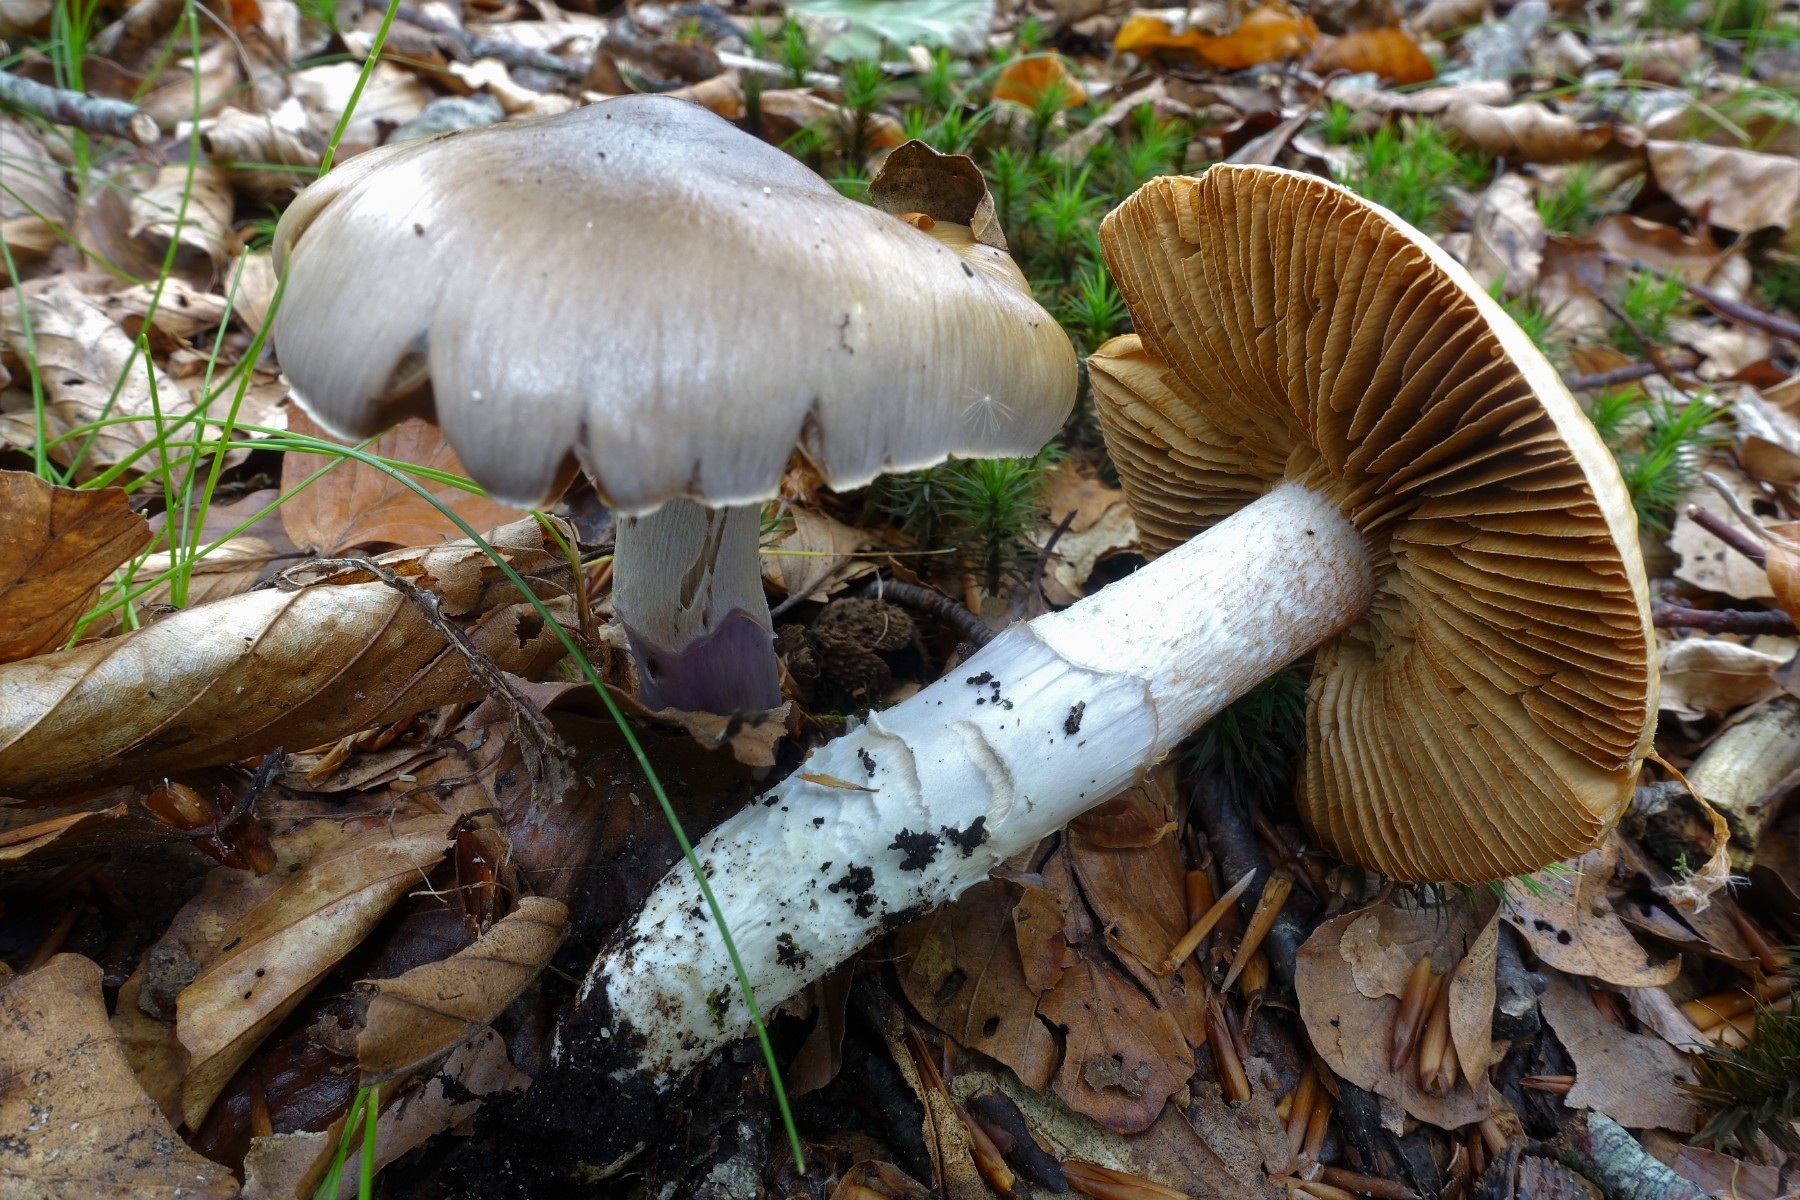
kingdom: Fungi
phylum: Basidiomycota
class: Agaricomycetes
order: Agaricales
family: Cortinariaceae
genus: Cortinarius
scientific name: Cortinarius elatior
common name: høj slørhat
